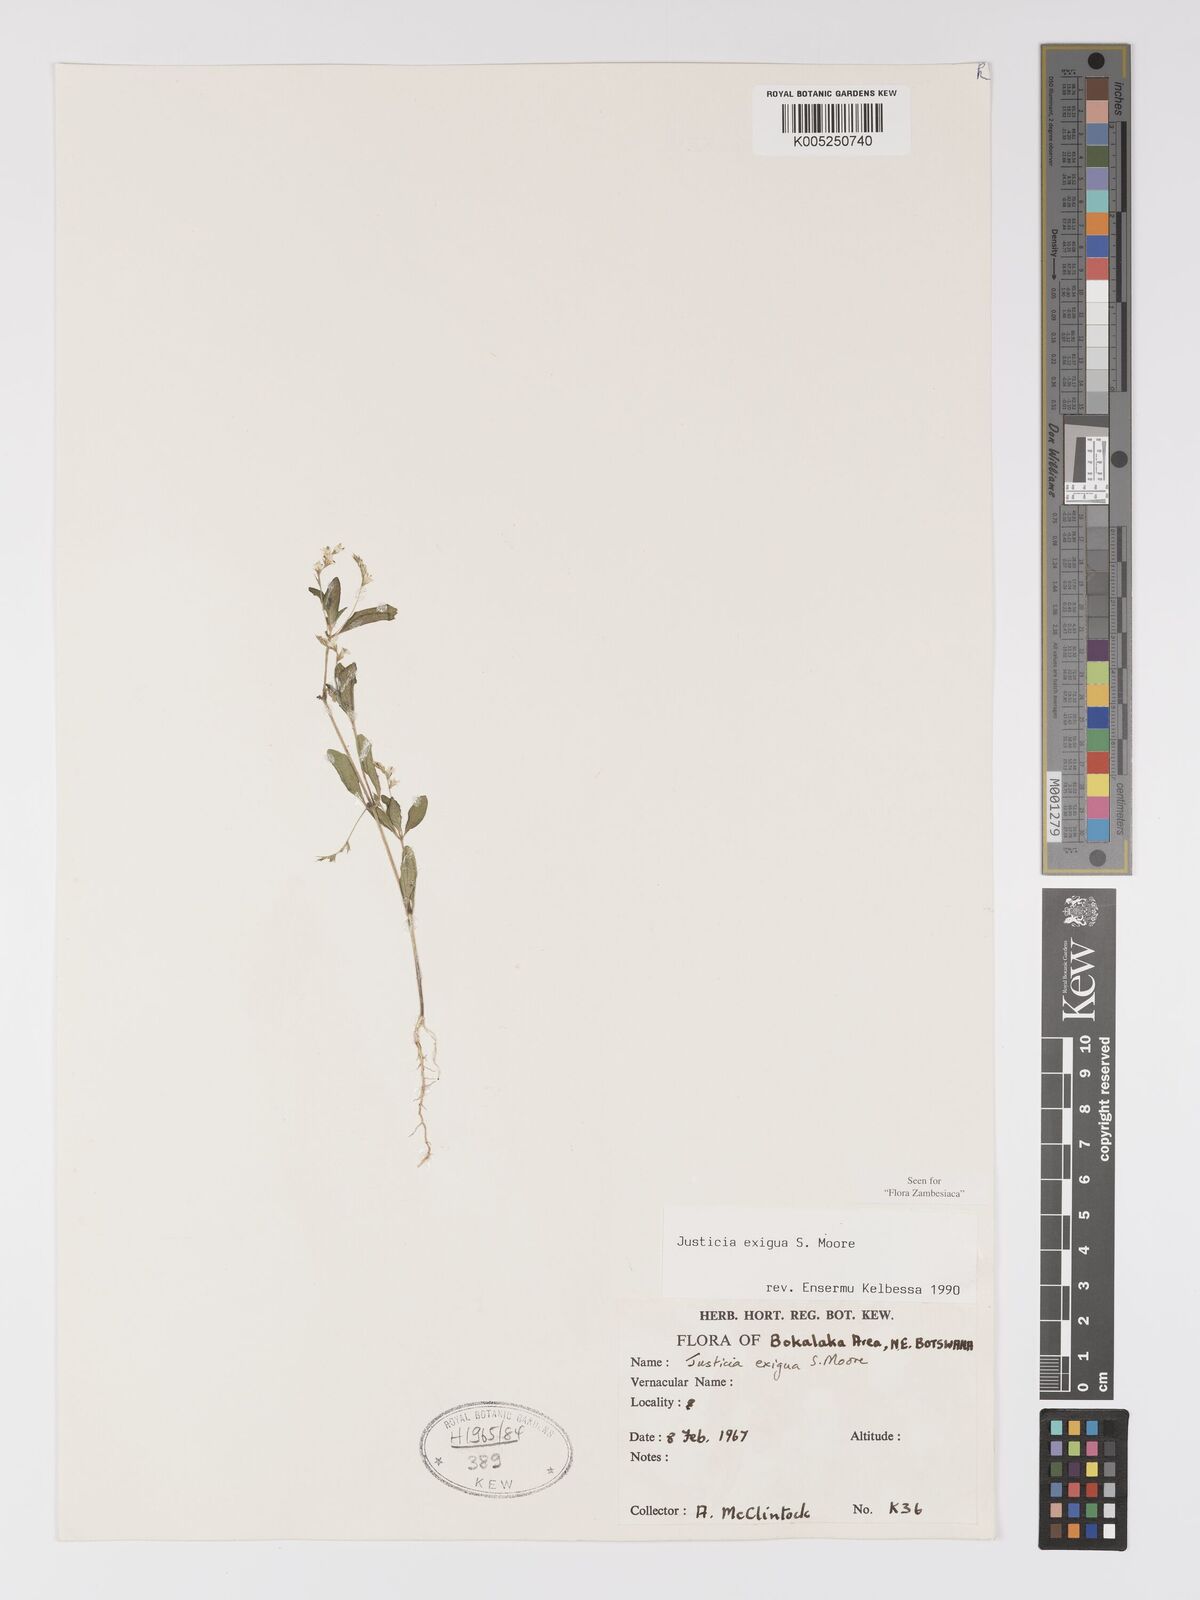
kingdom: Plantae
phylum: Tracheophyta
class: Magnoliopsida
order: Lamiales
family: Acanthaceae
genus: Justicia
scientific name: Justicia exigua
